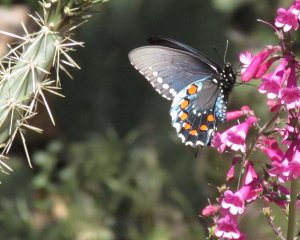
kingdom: Animalia
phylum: Arthropoda
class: Insecta
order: Lepidoptera
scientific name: Lepidoptera
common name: Butterflies
